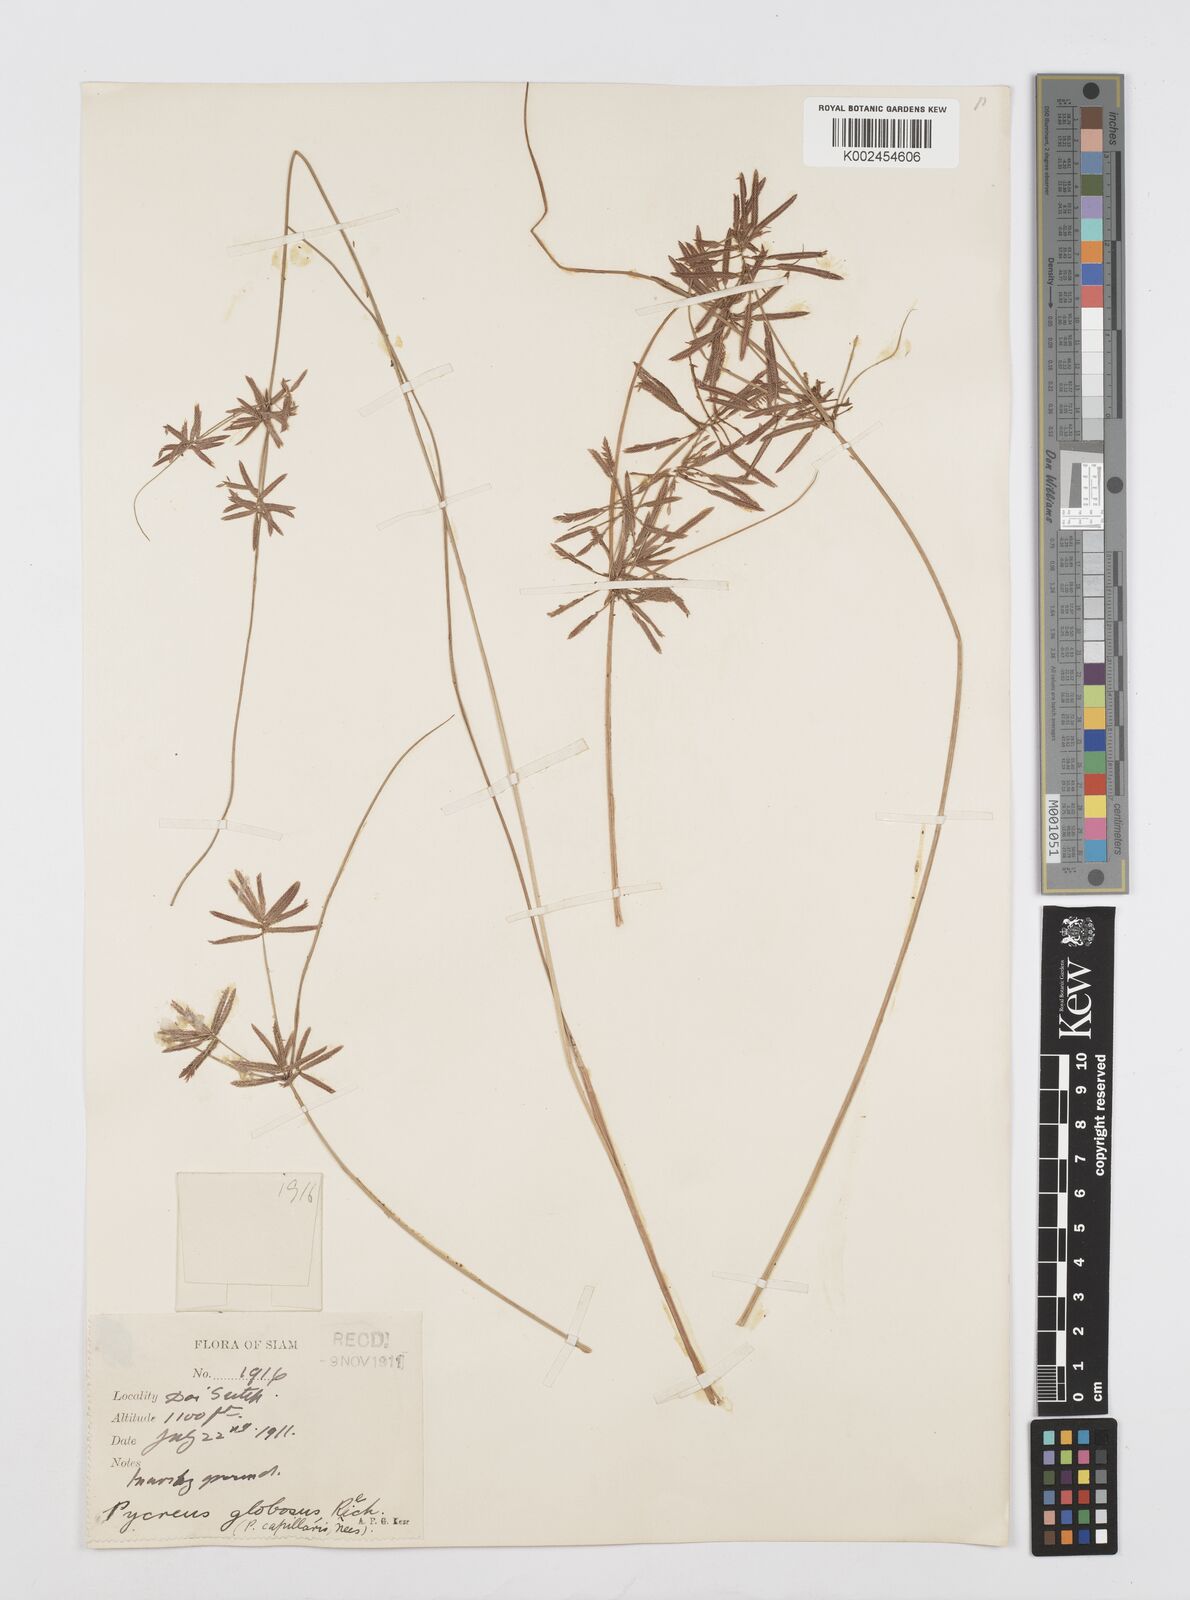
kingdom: Plantae
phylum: Tracheophyta
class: Liliopsida
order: Poales
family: Cyperaceae
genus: Cyperus
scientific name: Cyperus flavidus
